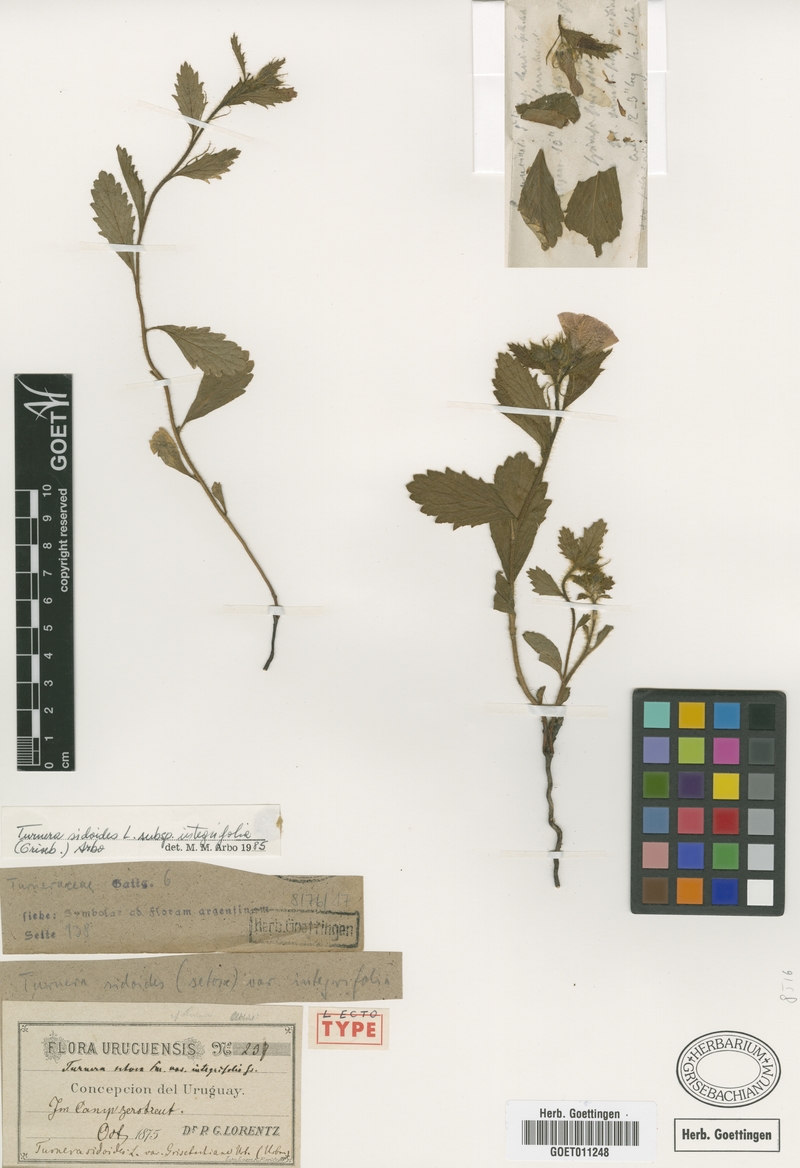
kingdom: Plantae
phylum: Tracheophyta
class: Magnoliopsida
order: Malpighiales
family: Turneraceae
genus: Turnera
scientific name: Turnera sidoides
